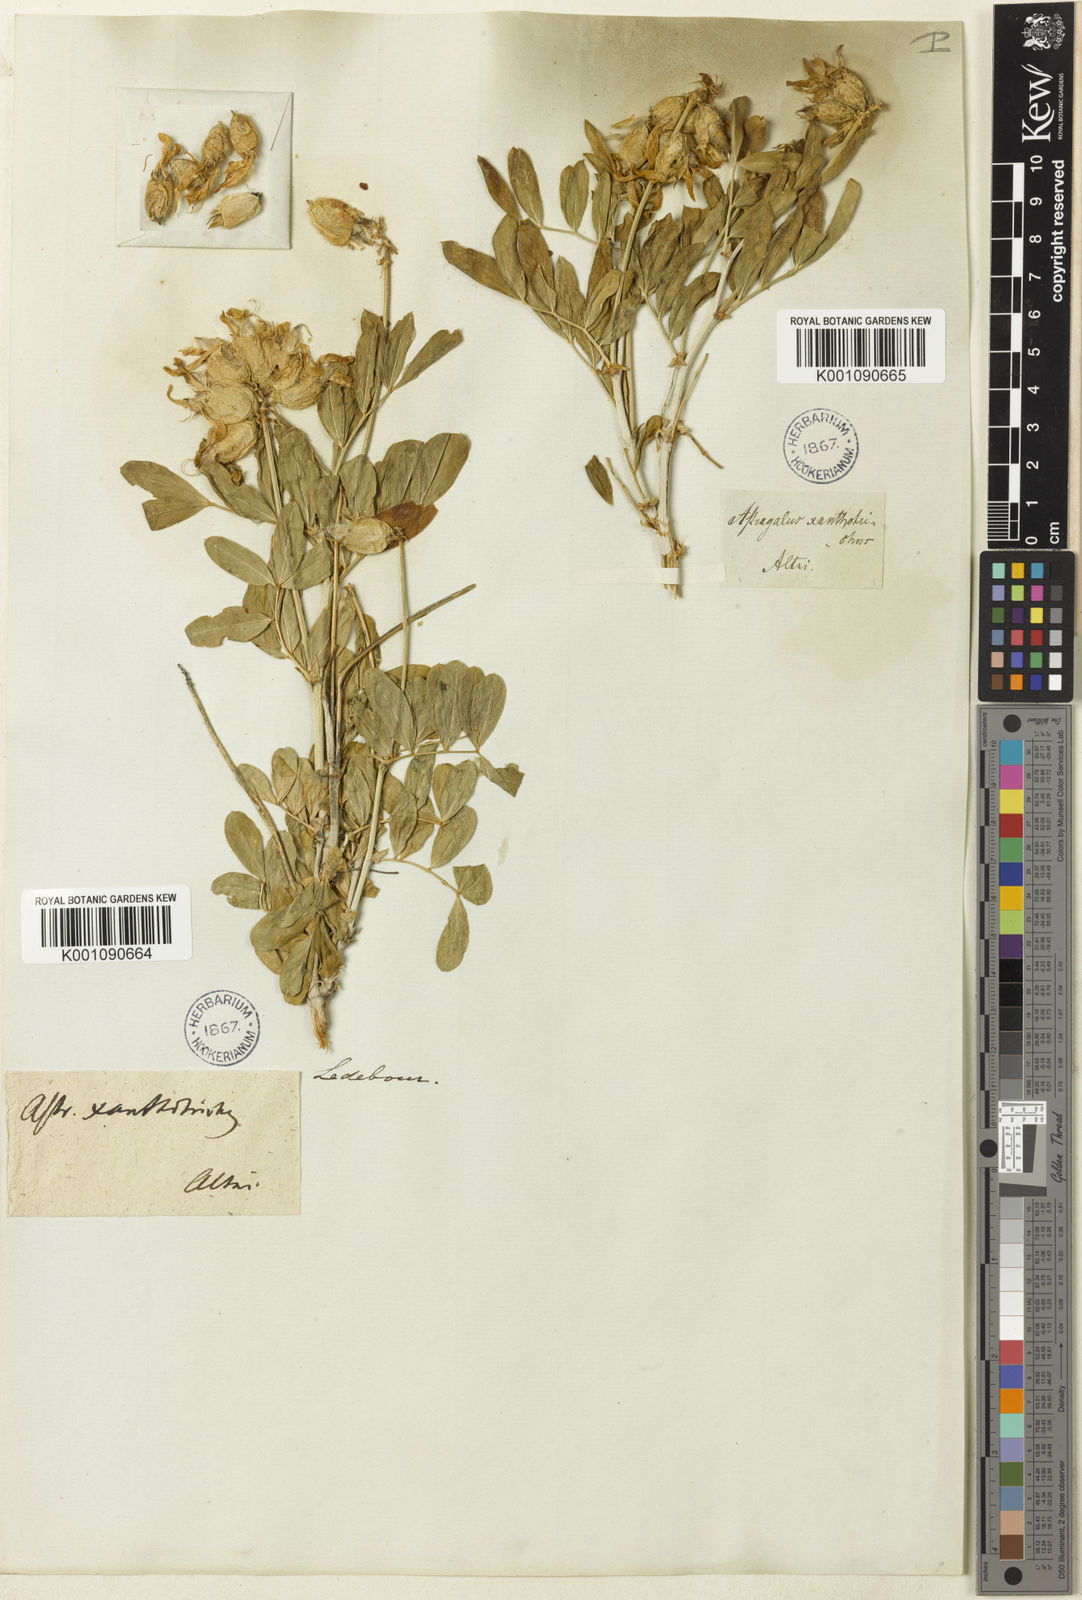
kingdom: Plantae
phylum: Tracheophyta
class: Magnoliopsida
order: Fabales
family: Fabaceae
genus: Astragalus
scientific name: Astragalus
